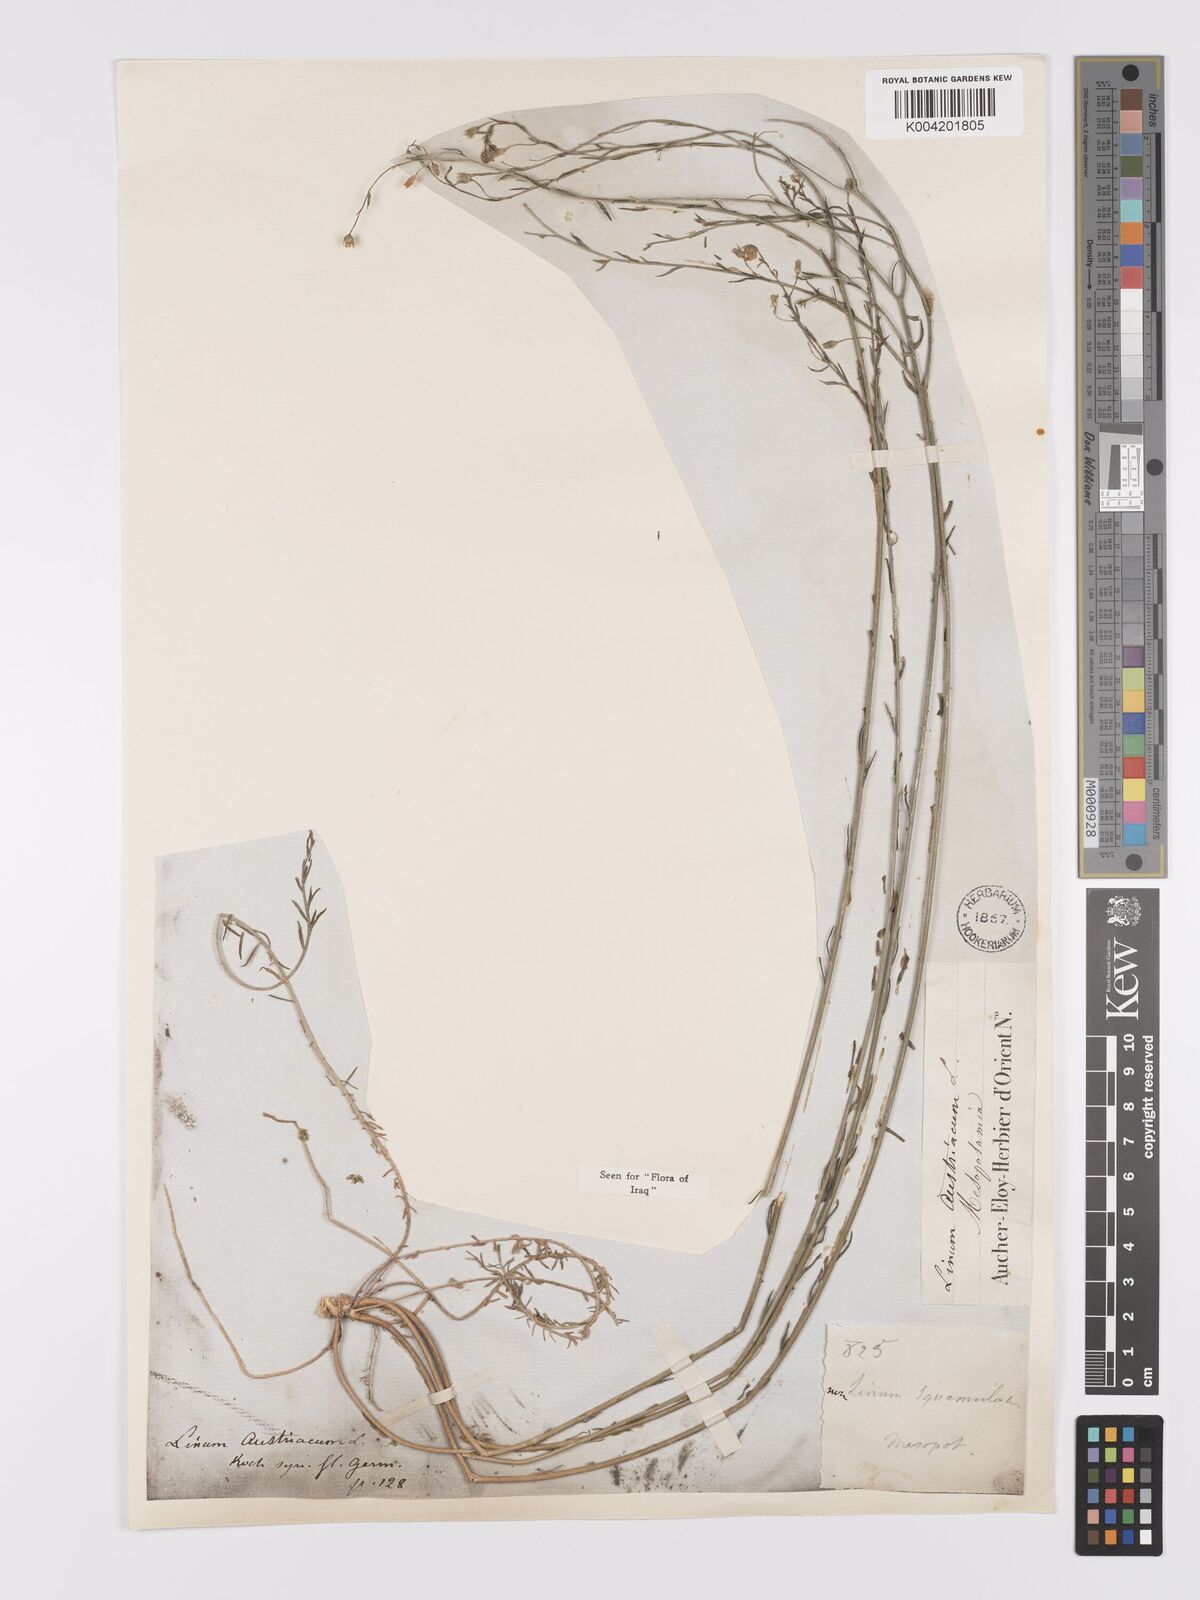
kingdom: Plantae
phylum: Tracheophyta
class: Magnoliopsida
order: Malpighiales
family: Linaceae
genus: Linum
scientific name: Linum
